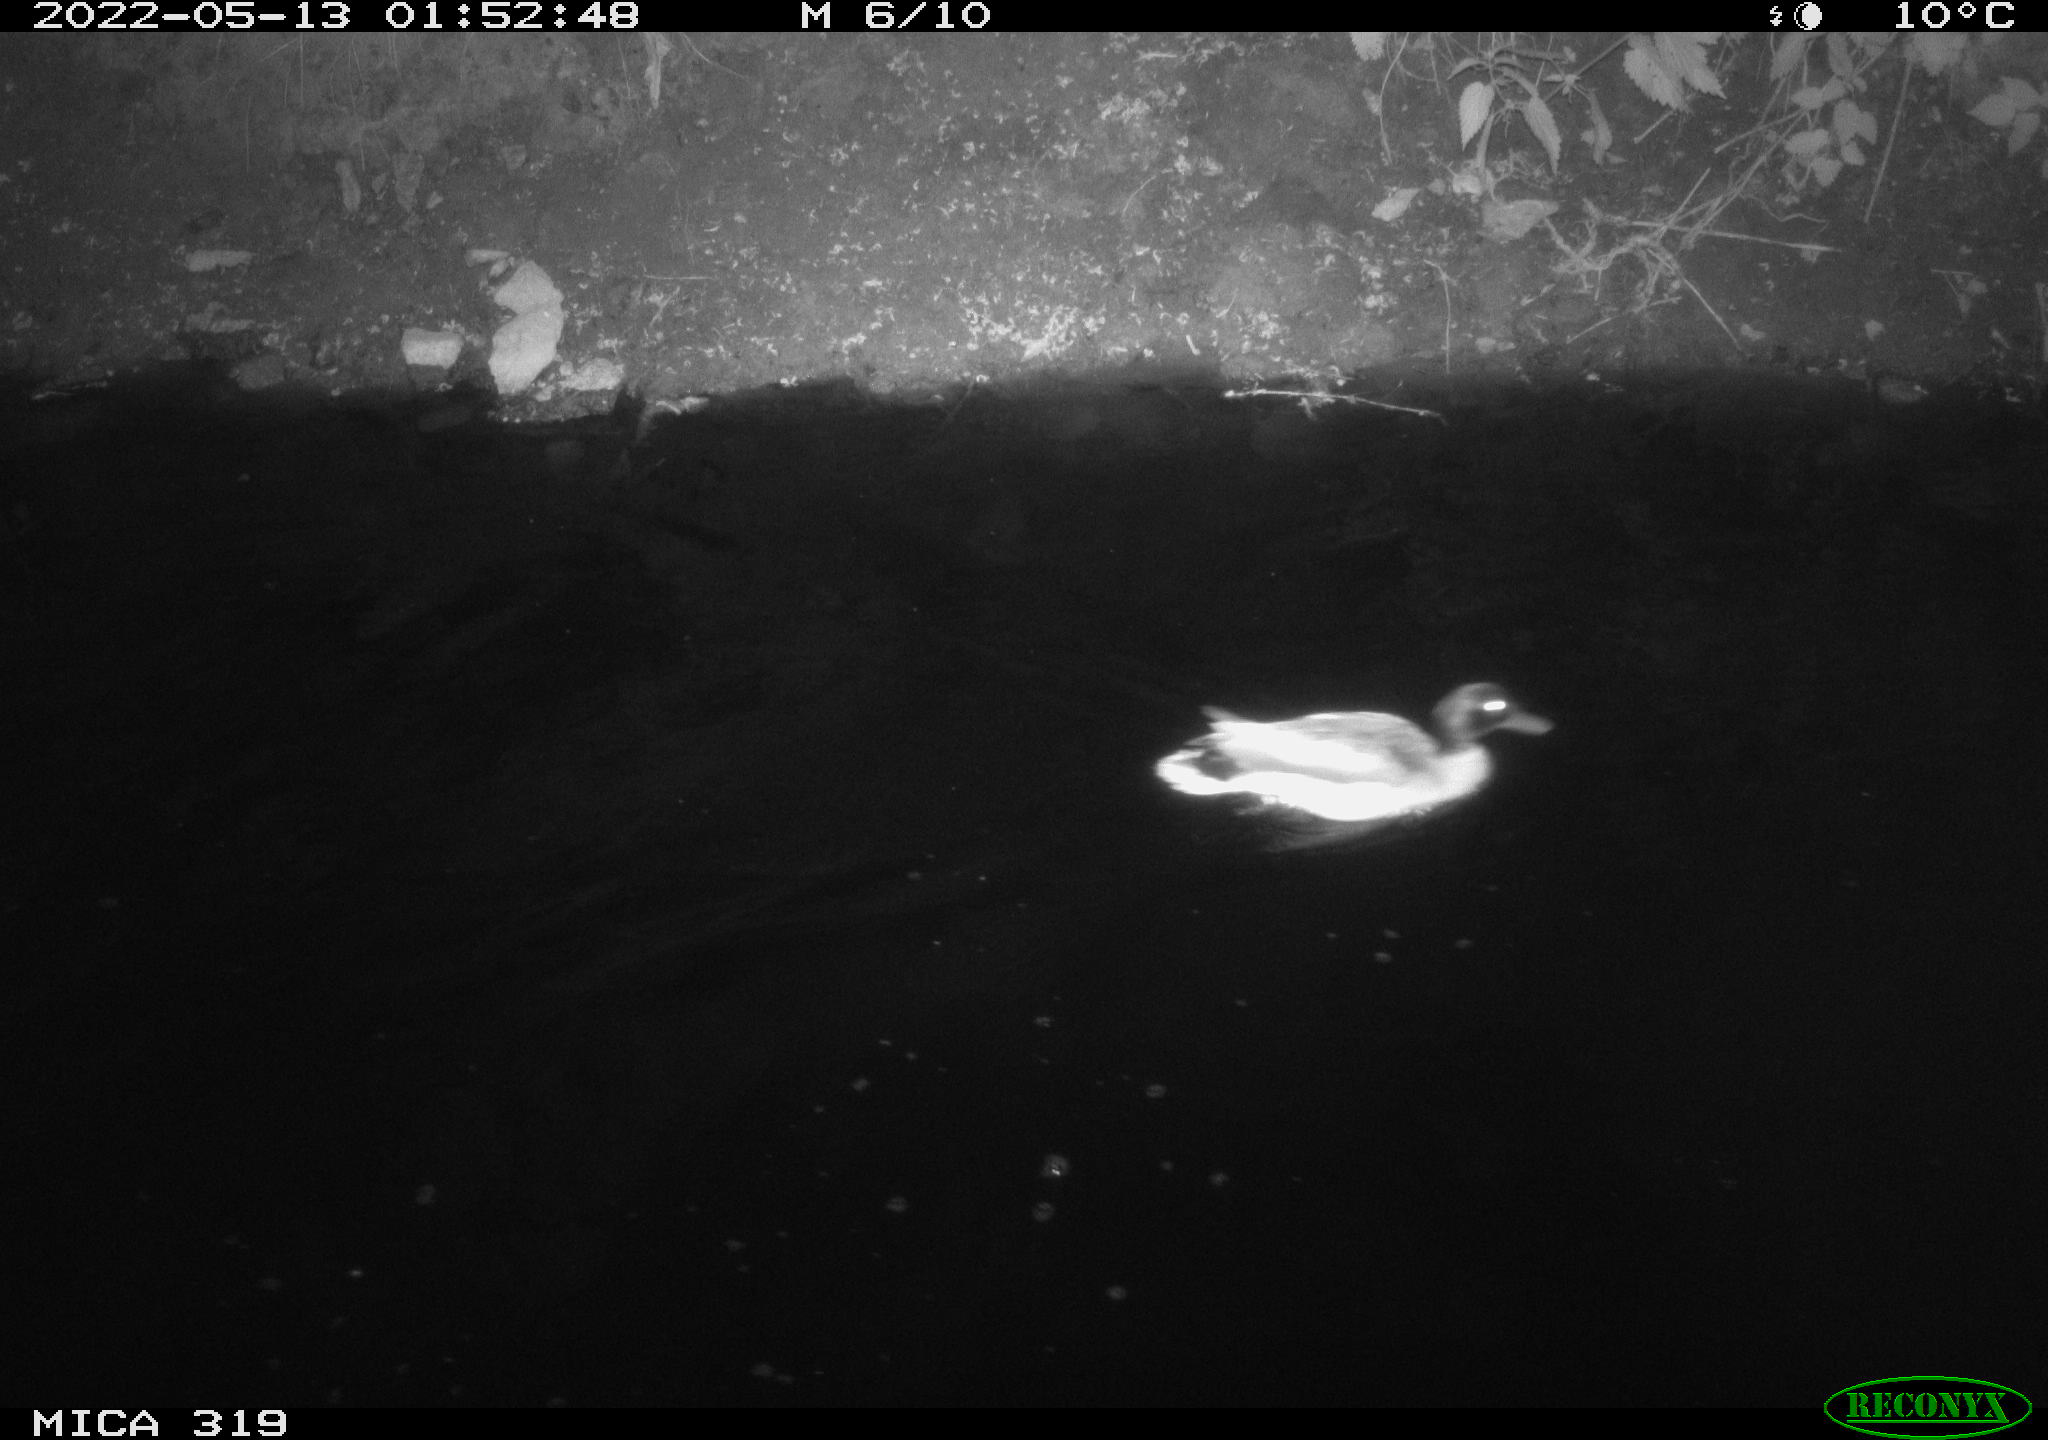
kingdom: Animalia
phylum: Chordata
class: Aves
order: Anseriformes
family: Anatidae
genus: Anas
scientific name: Anas
